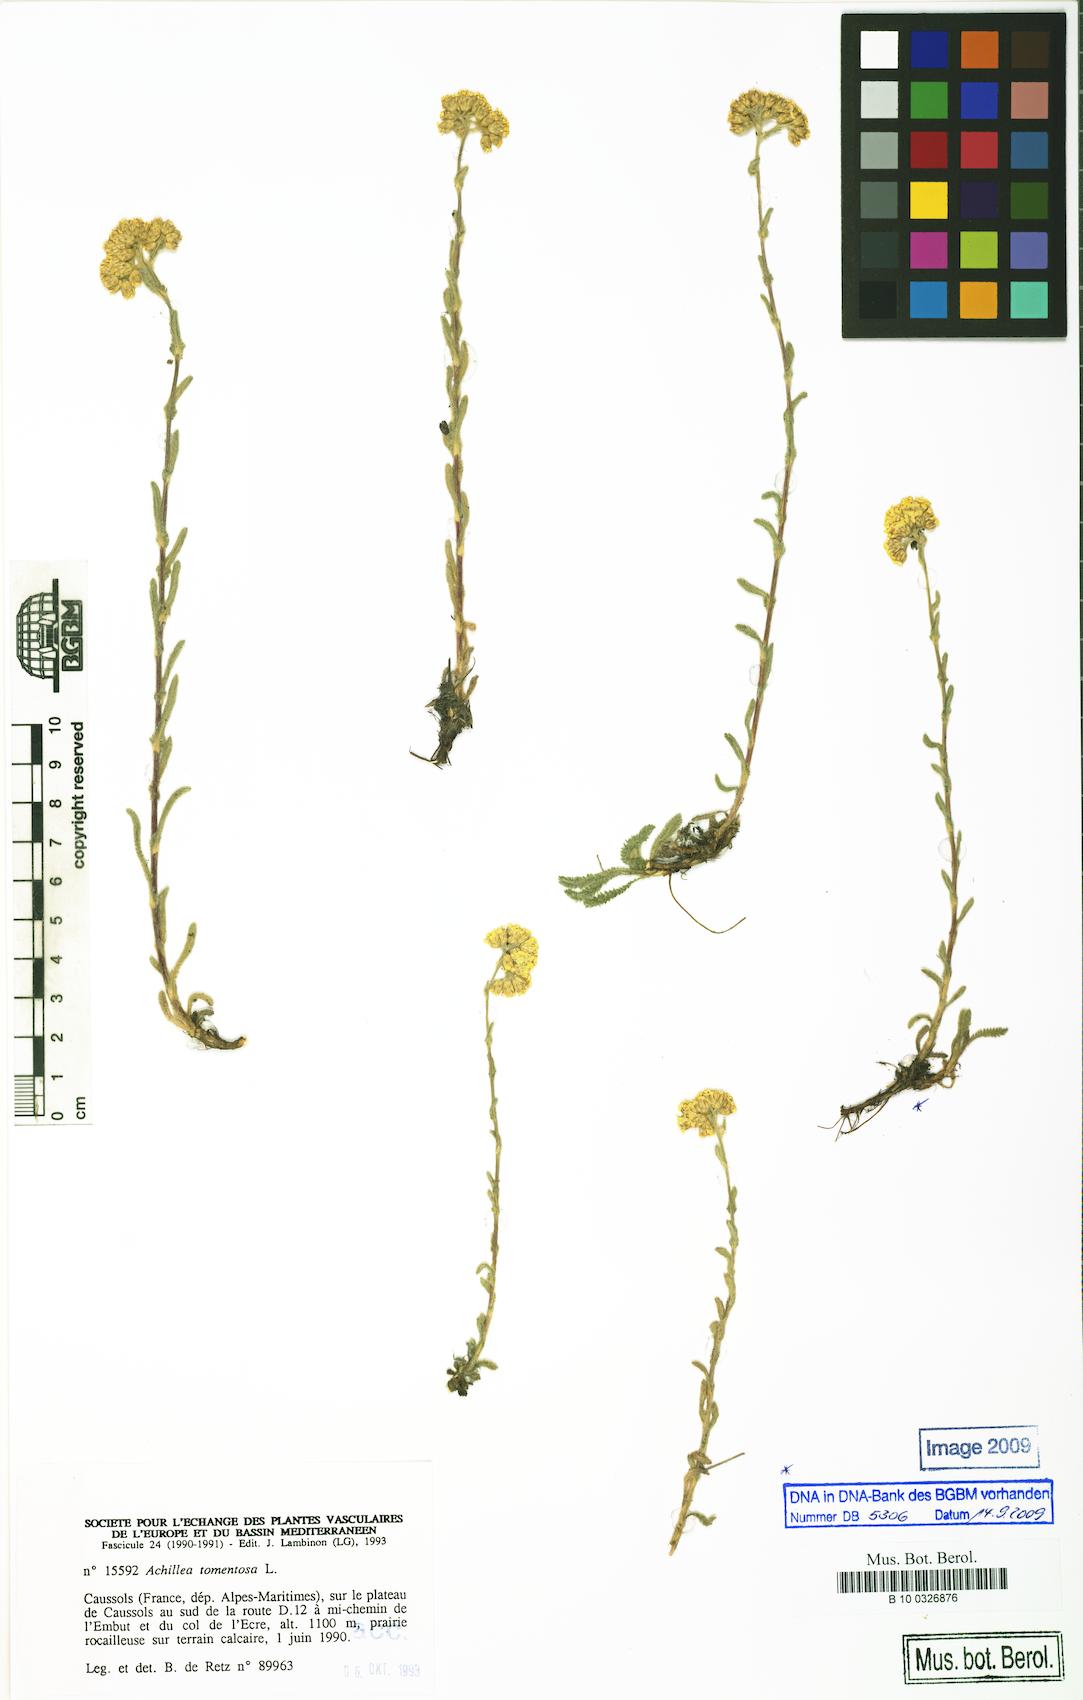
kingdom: Plantae
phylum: Tracheophyta
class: Magnoliopsida
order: Asterales
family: Asteraceae
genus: Achillea
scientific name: Achillea tomentosa
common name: Yellow milfoil
